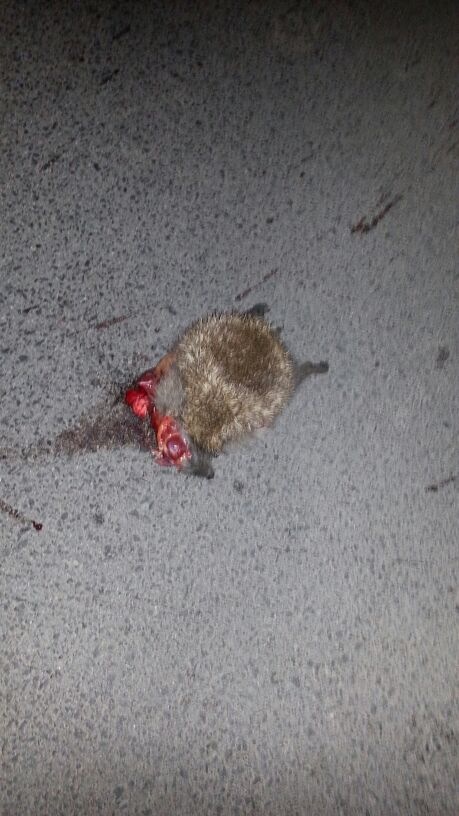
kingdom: Animalia
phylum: Chordata
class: Mammalia
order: Erinaceomorpha
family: Erinaceidae
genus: Erinaceus
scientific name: Erinaceus
